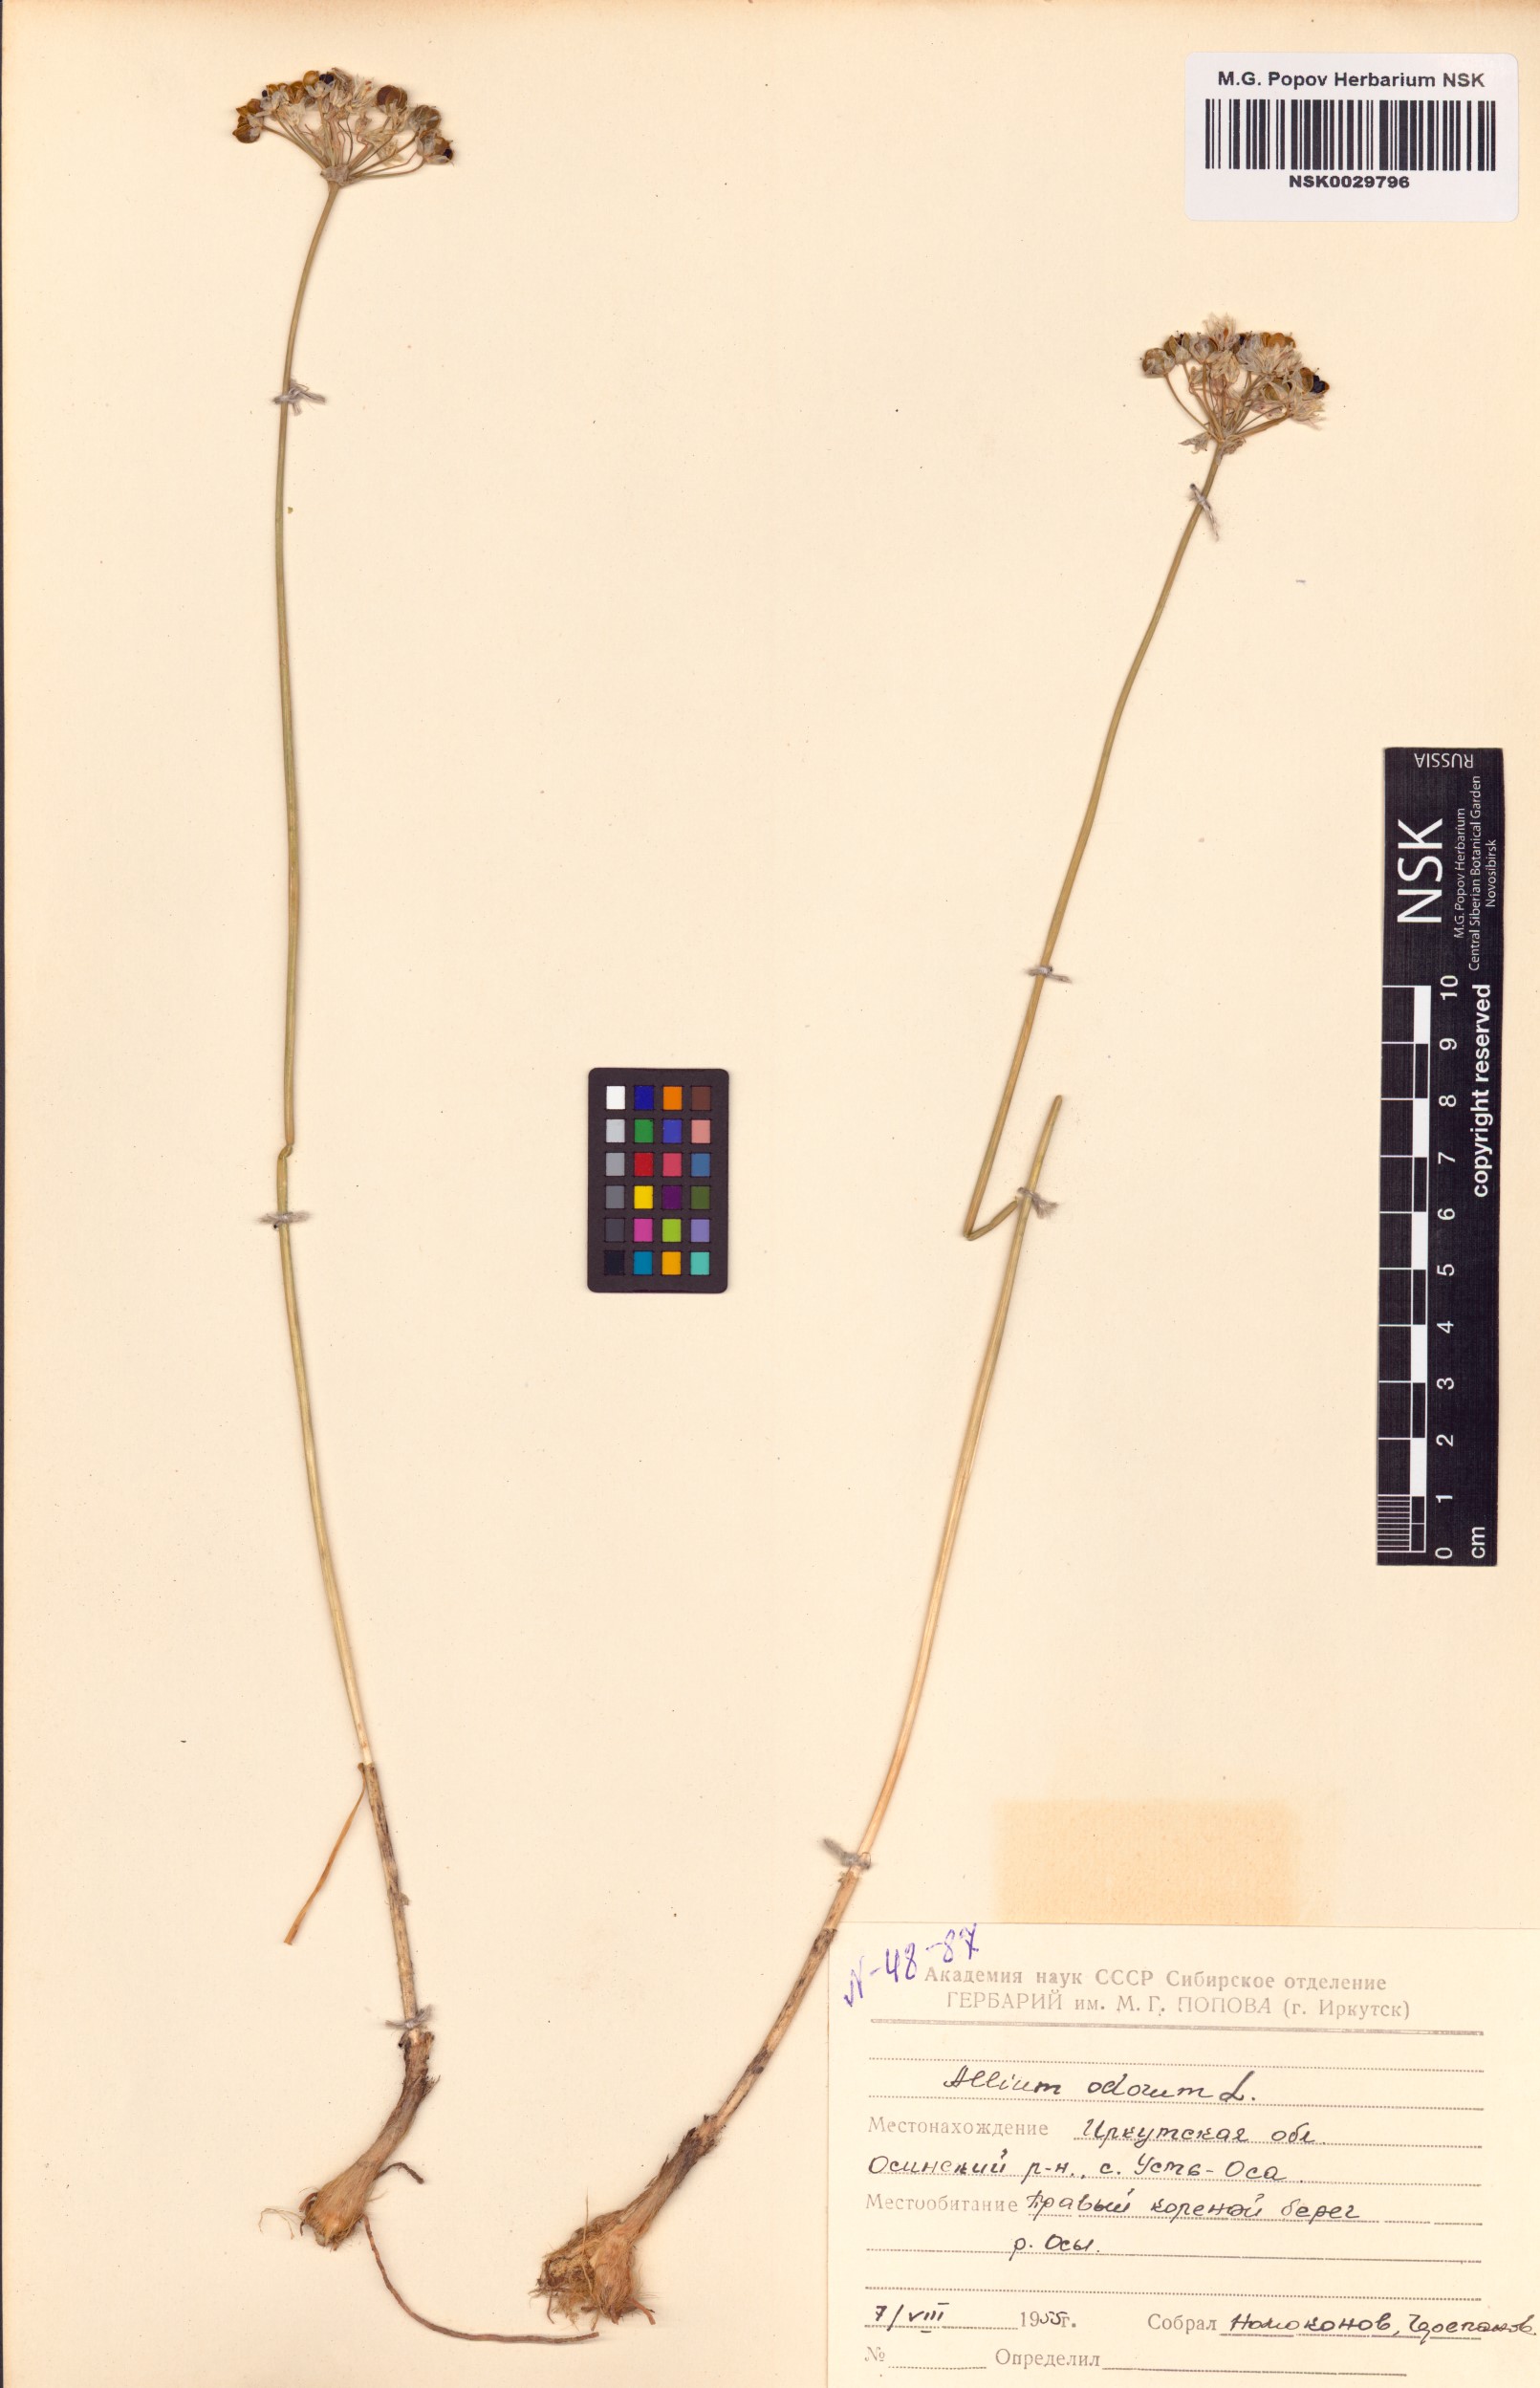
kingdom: Plantae
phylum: Tracheophyta
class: Liliopsida
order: Asparagales
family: Amaryllidaceae
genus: Allium
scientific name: Allium ramosum
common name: Fragrant garlic
